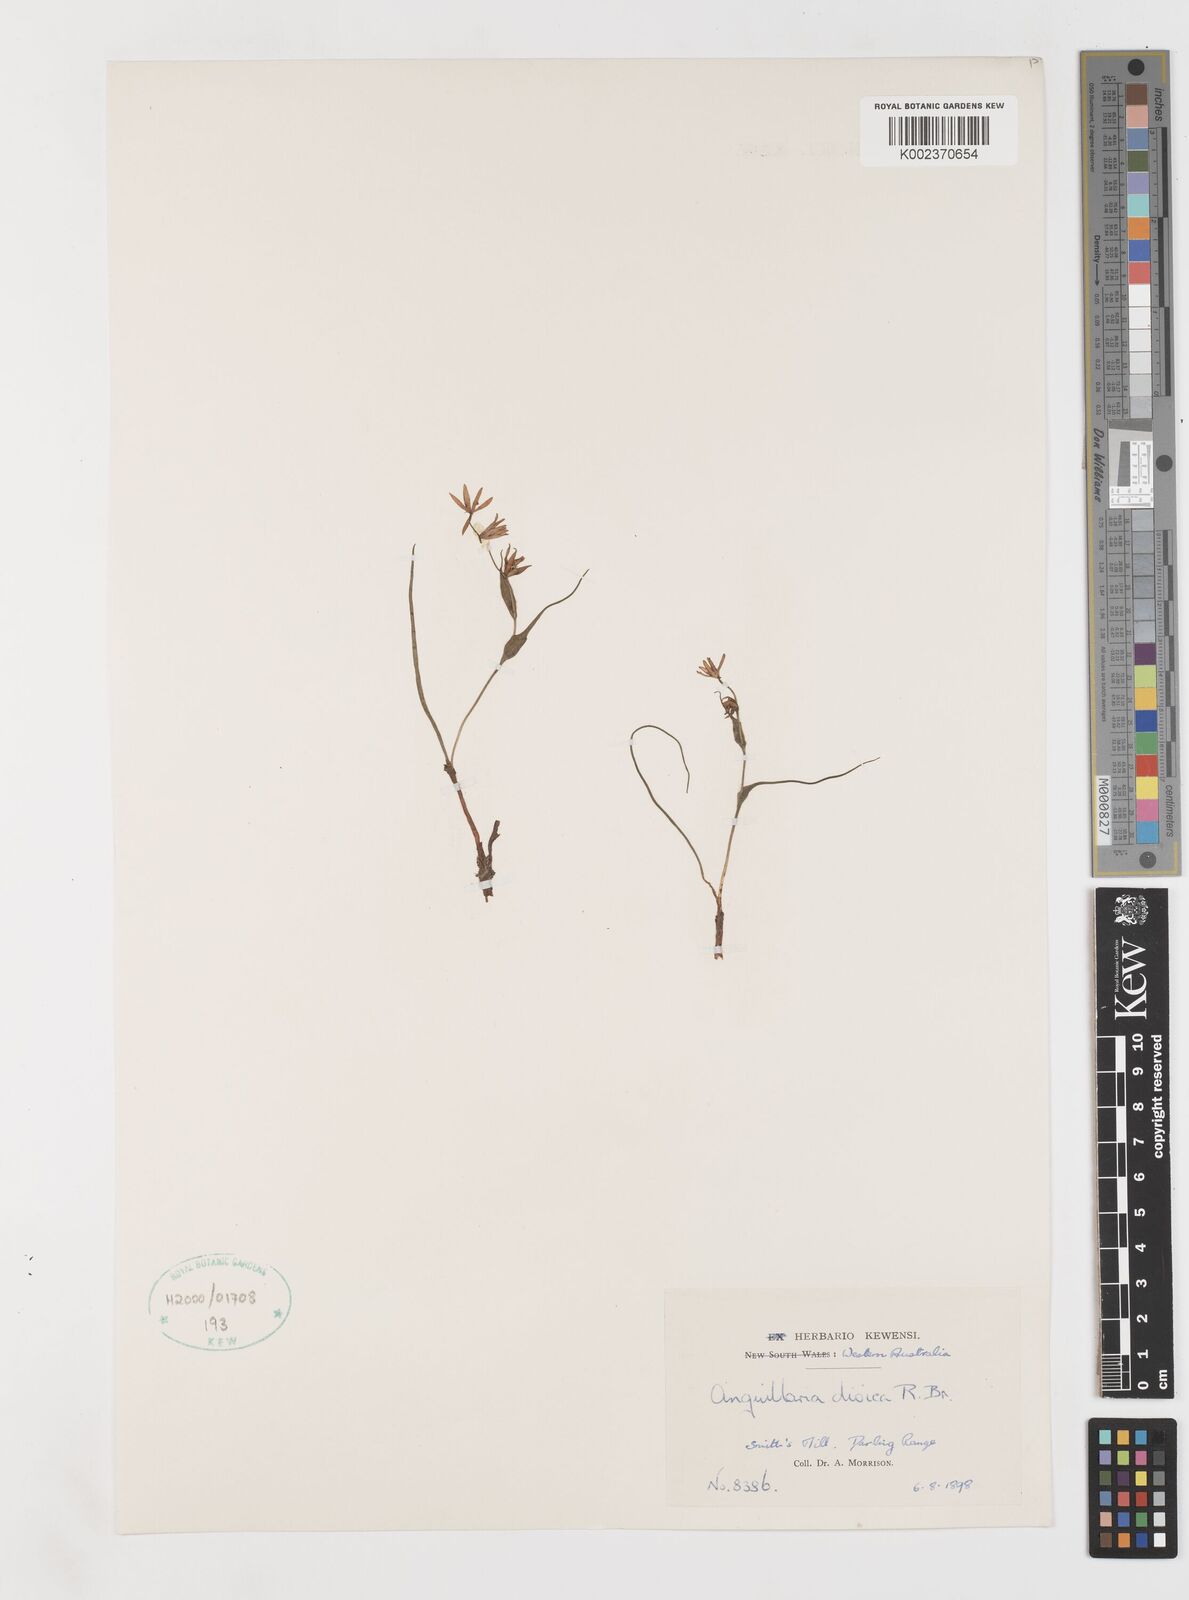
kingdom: Plantae
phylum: Tracheophyta
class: Liliopsida
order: Liliales
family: Colchicaceae
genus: Wurmbea
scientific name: Wurmbea dioica
